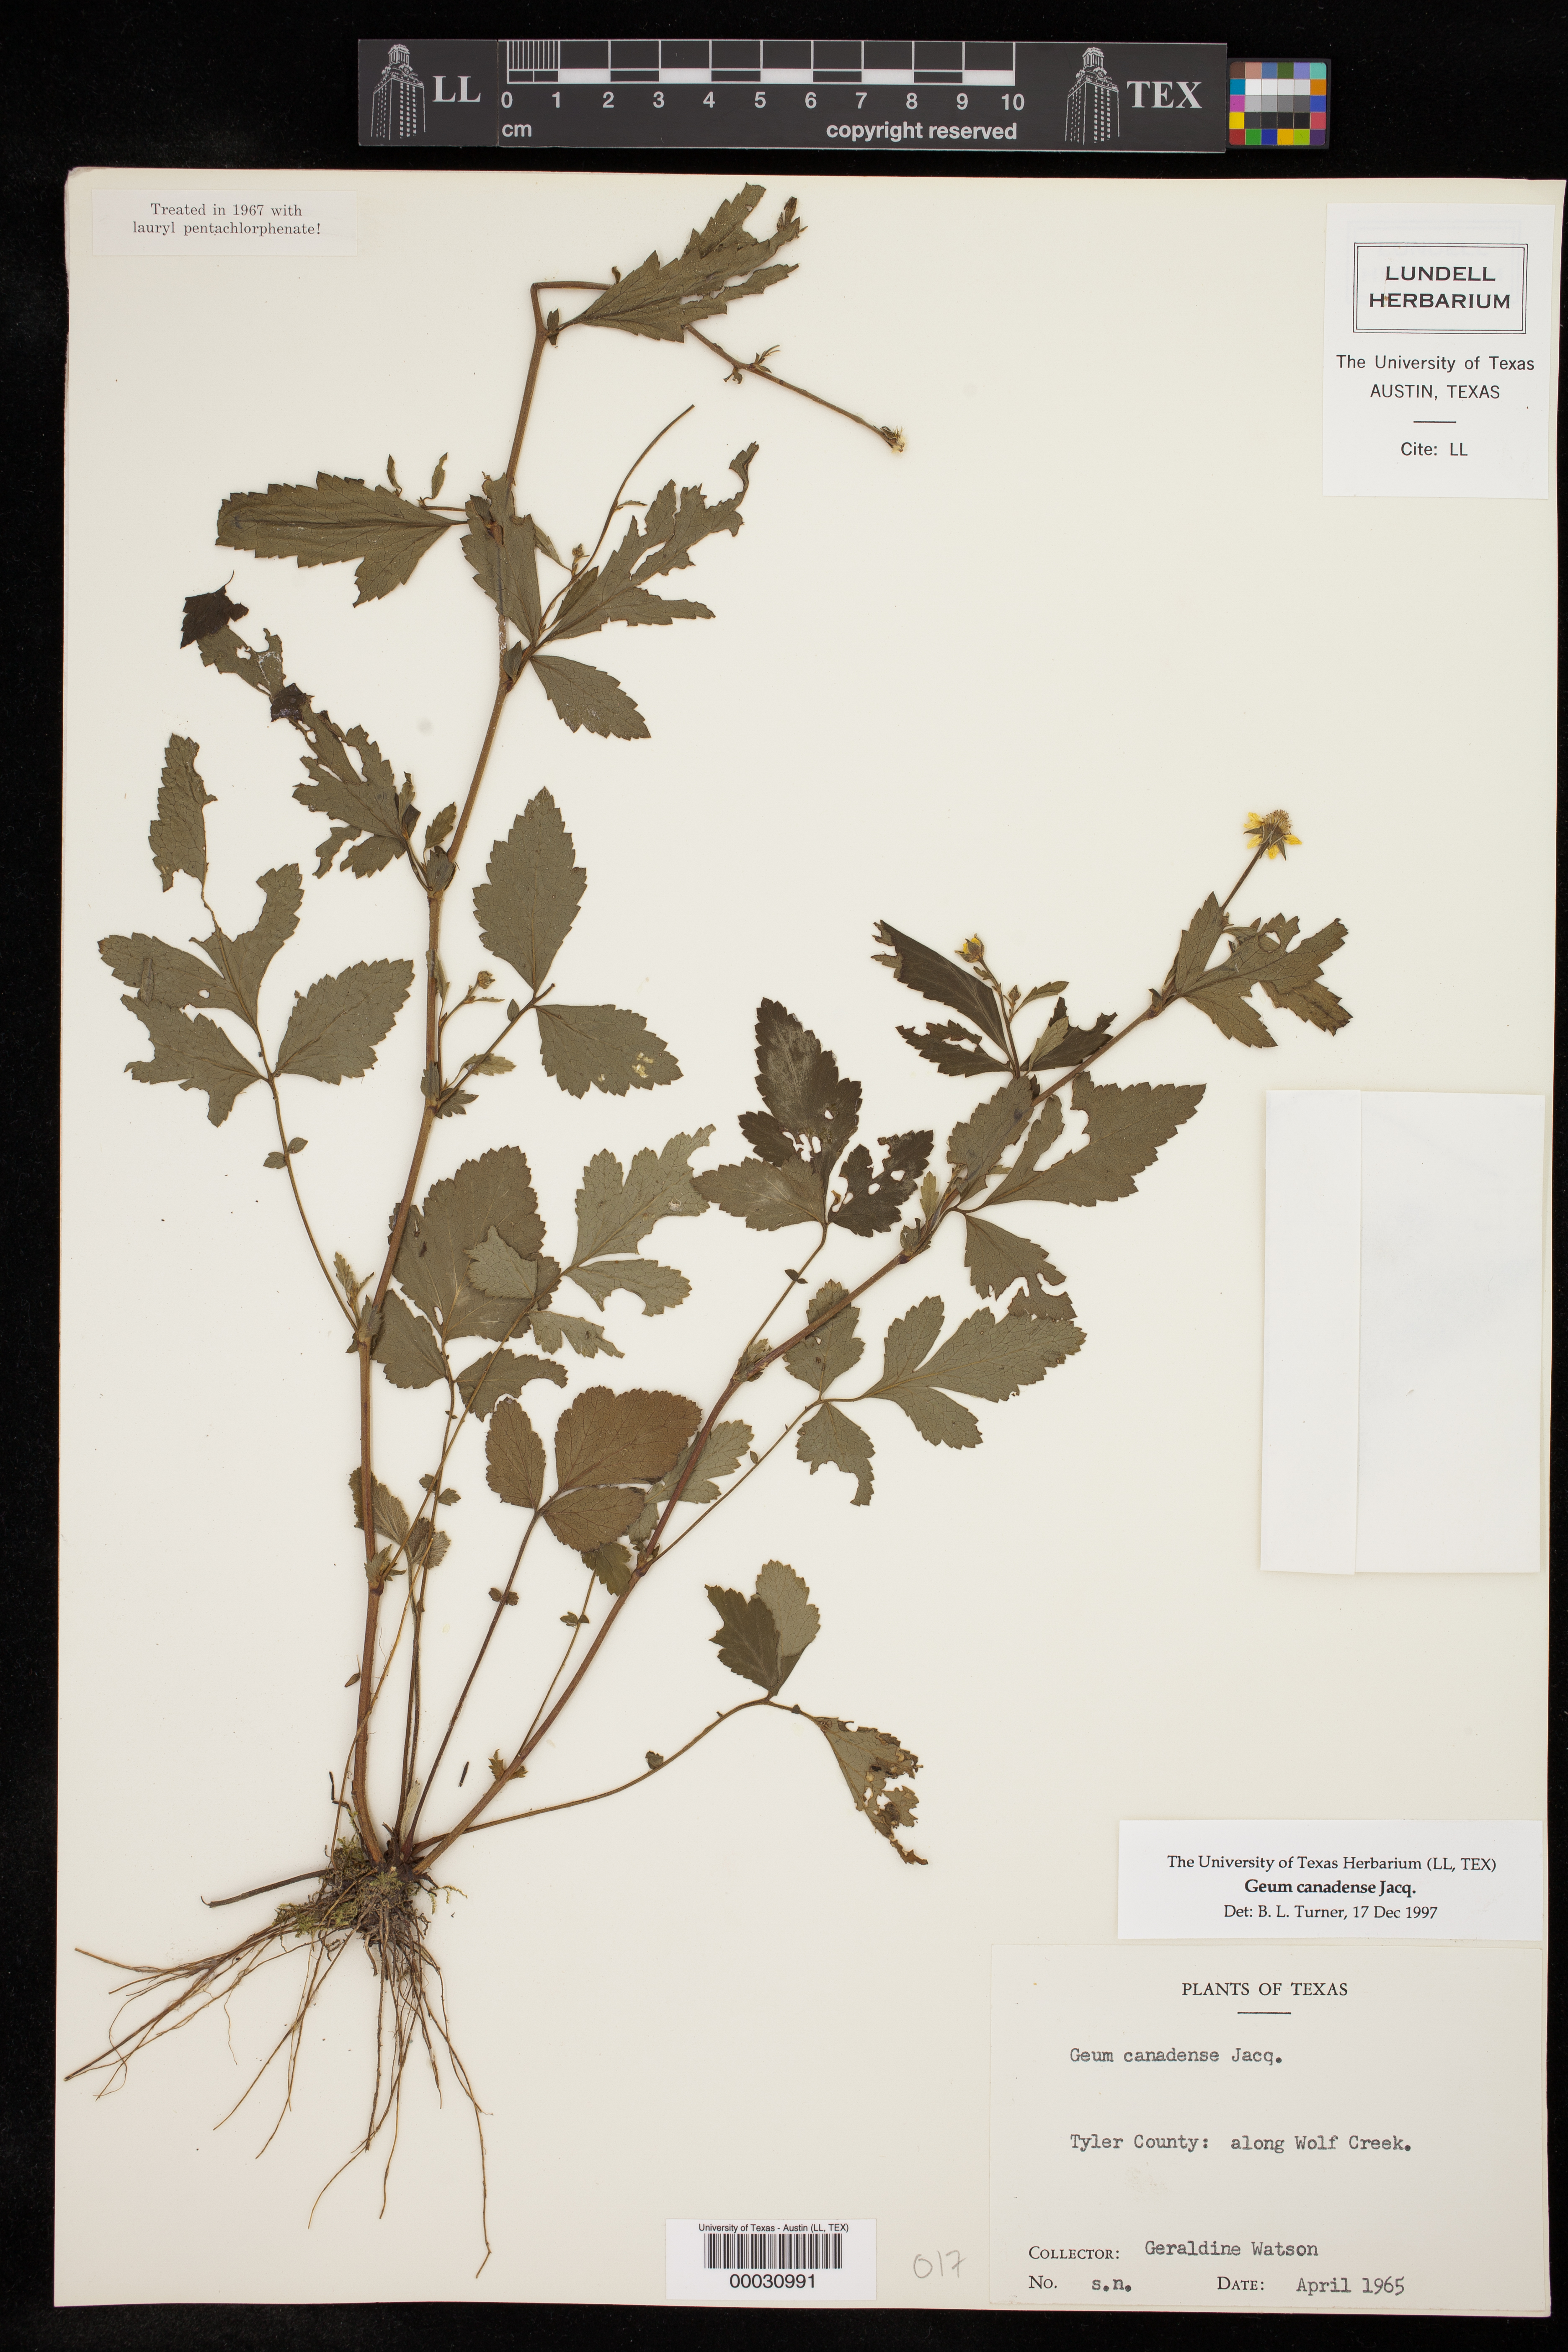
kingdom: Plantae
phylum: Tracheophyta
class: Magnoliopsida
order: Rosales
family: Rosaceae
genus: Geum
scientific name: Geum canadense
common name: White avens
